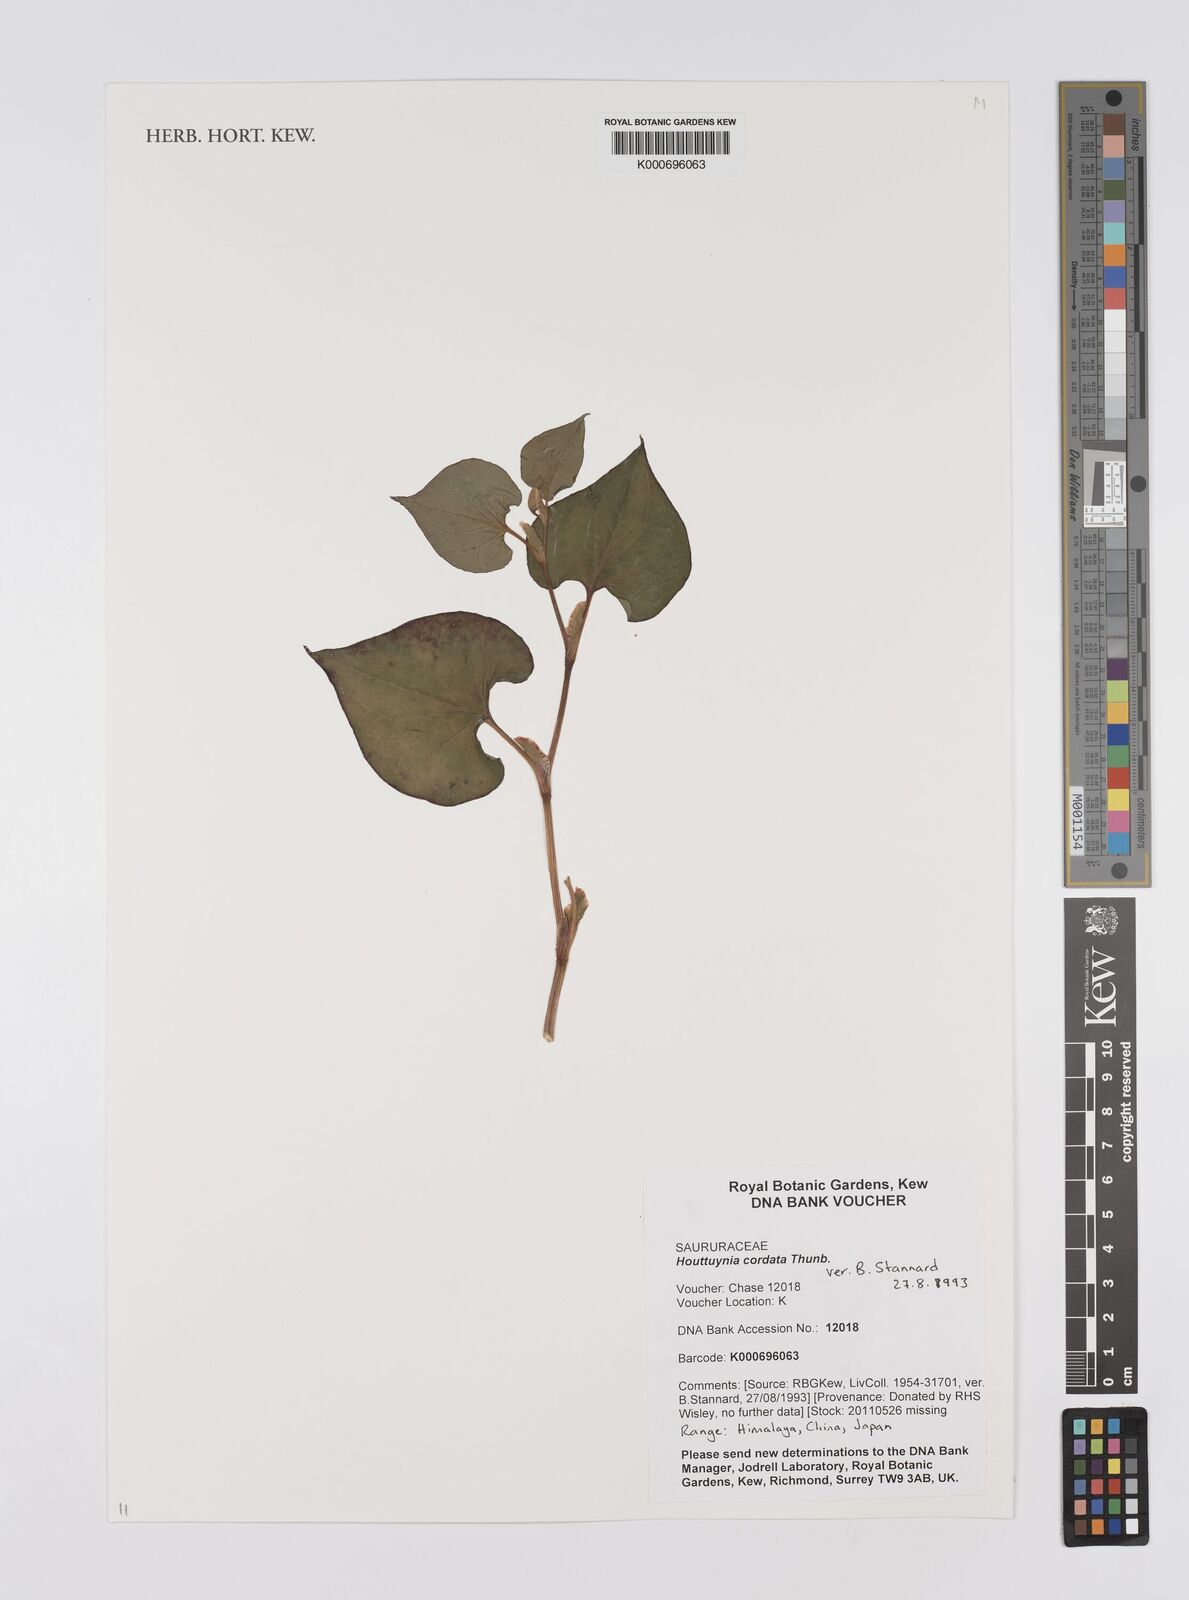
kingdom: Plantae
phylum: Tracheophyta
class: Magnoliopsida
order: Piperales
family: Saururaceae
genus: Houttuynia
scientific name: Houttuynia cordata
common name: Chameleon
